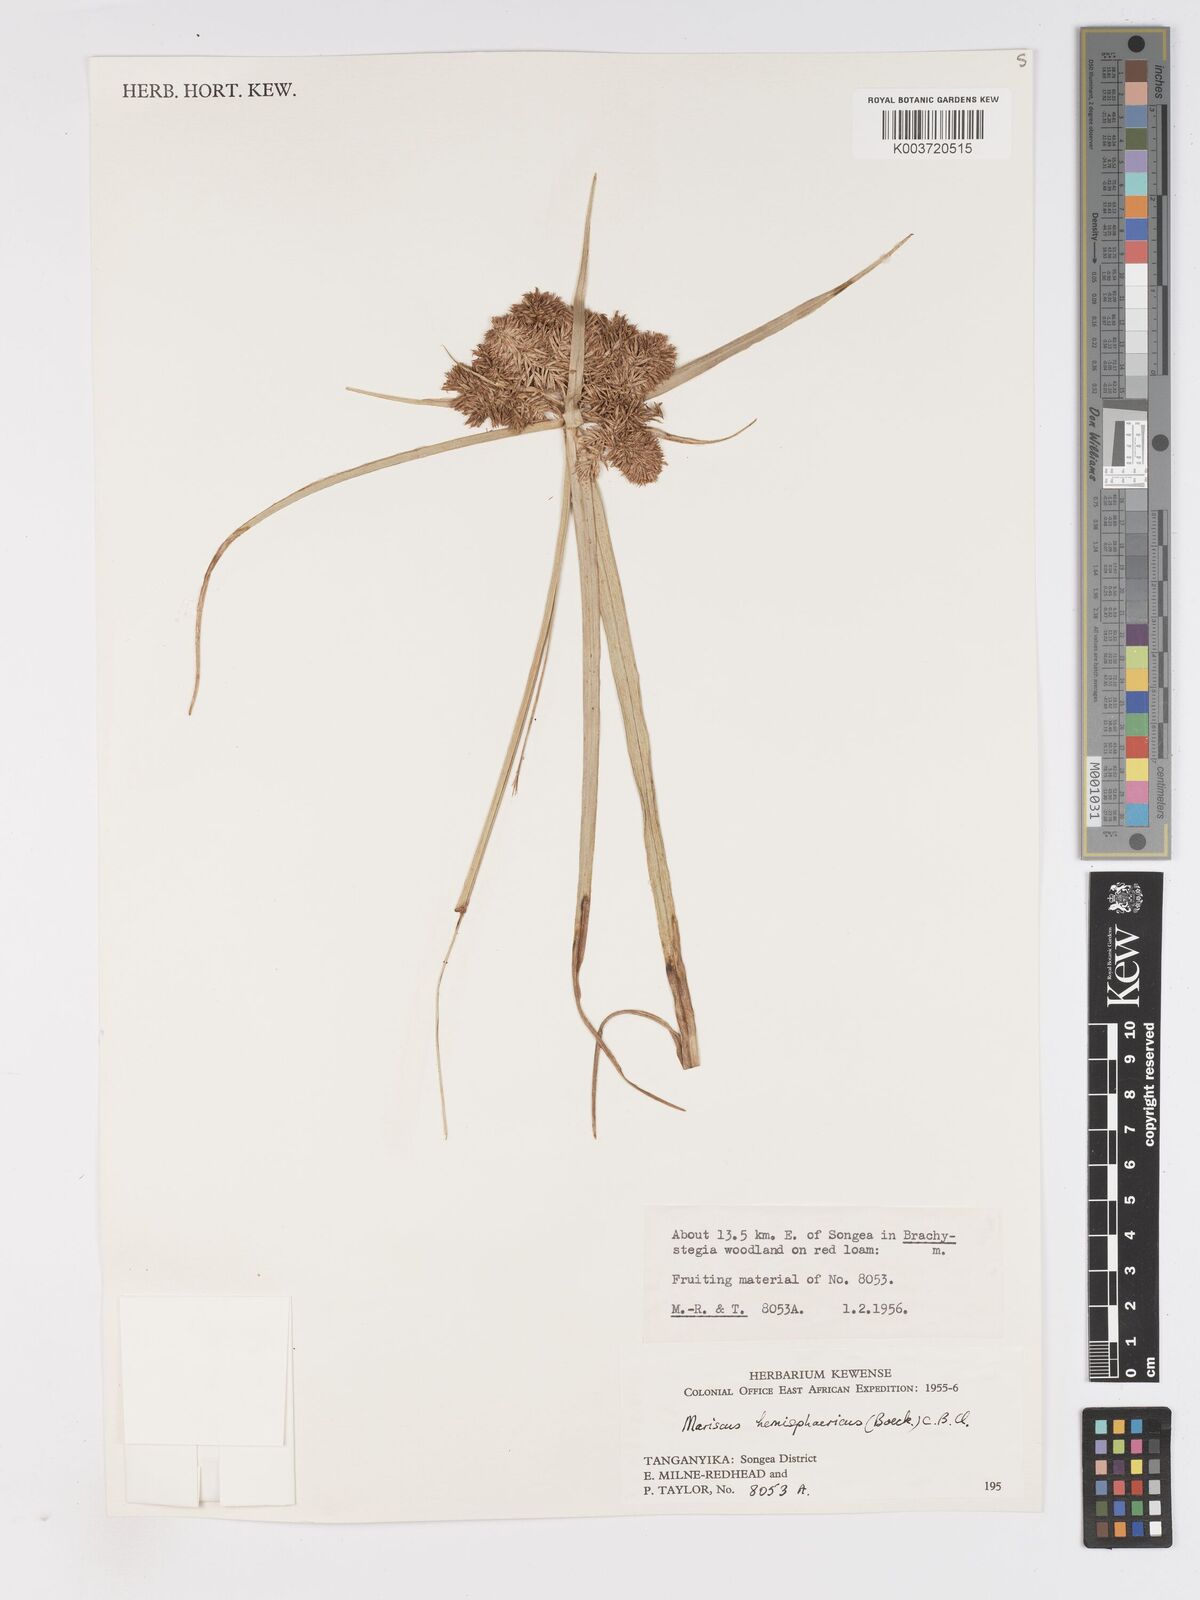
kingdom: Plantae
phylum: Tracheophyta
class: Liliopsida
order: Poales
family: Cyperaceae
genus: Cyperus
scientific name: Cyperus hemisphaericus
